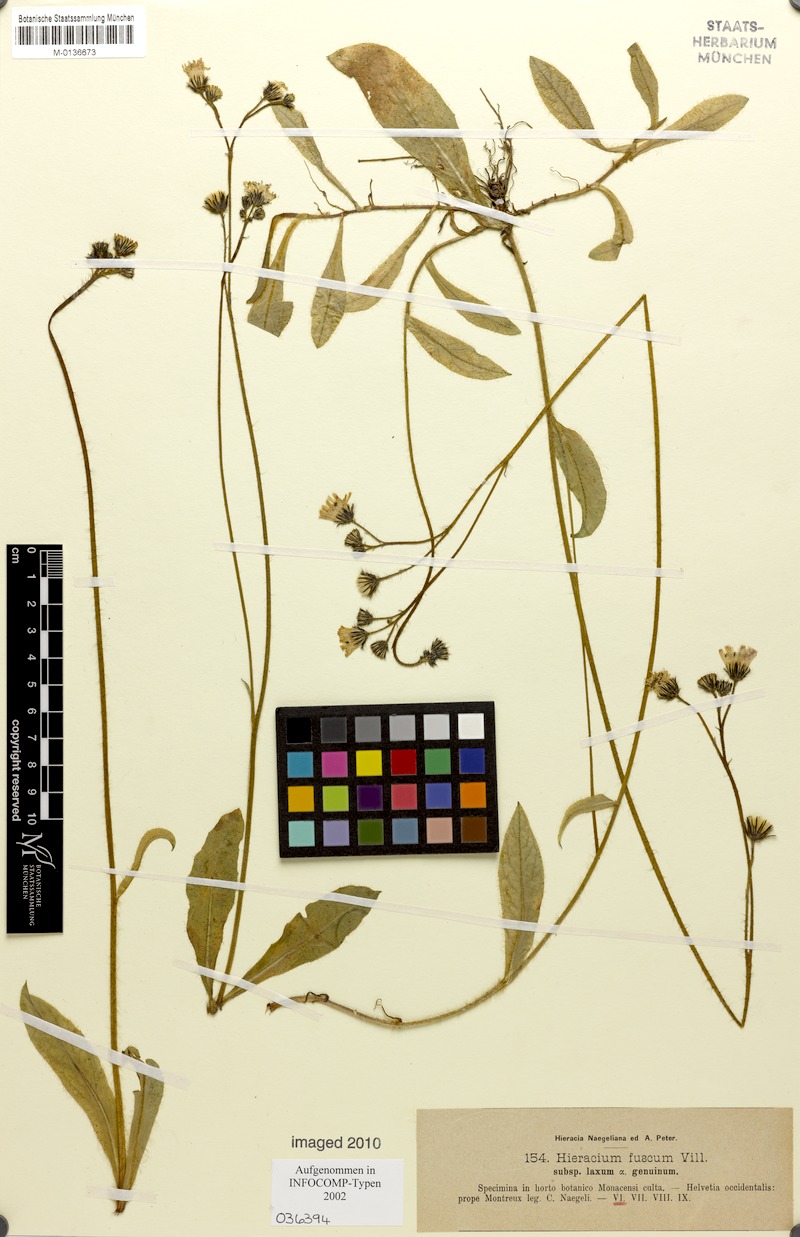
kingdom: Plantae
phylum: Tracheophyta
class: Magnoliopsida
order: Asterales
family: Asteraceae
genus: Pilosella
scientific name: Pilosella fusca
